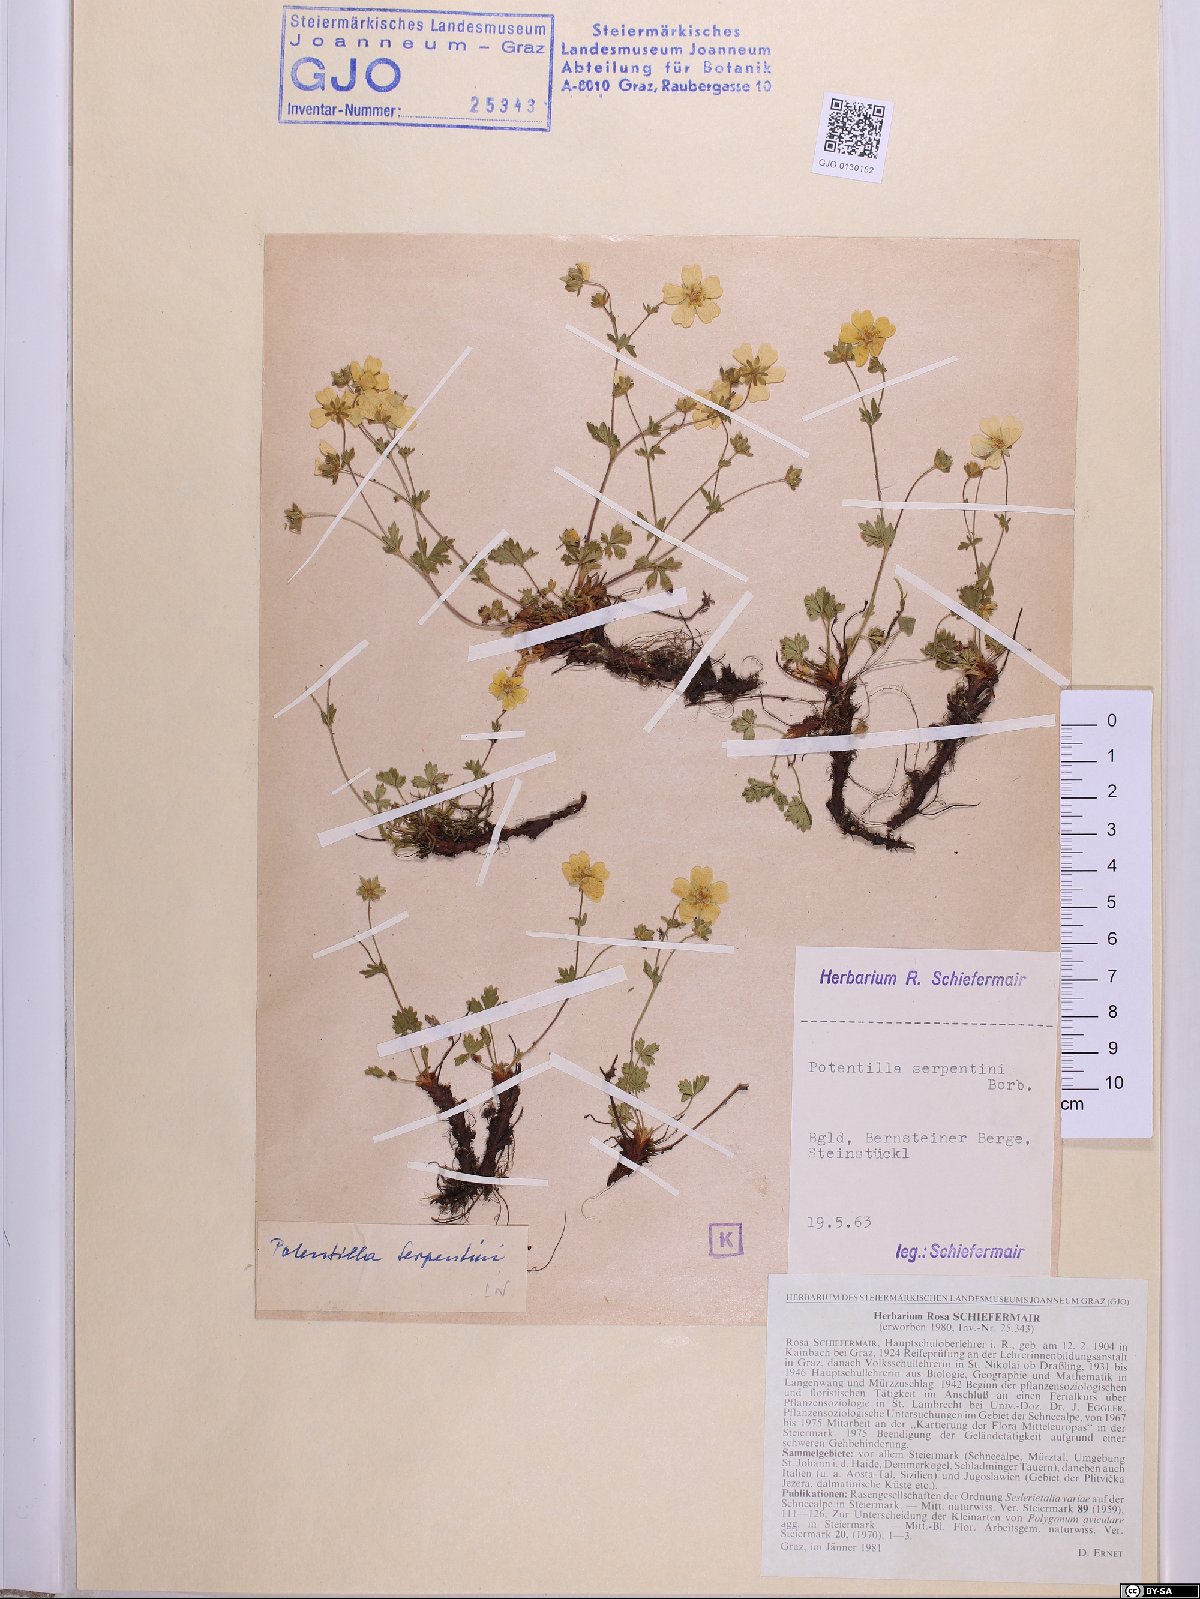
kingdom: Plantae
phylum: Tracheophyta
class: Magnoliopsida
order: Rosales
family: Rosaceae
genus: Potentilla
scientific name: Potentilla crantzii
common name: Alpine cinquefoil
